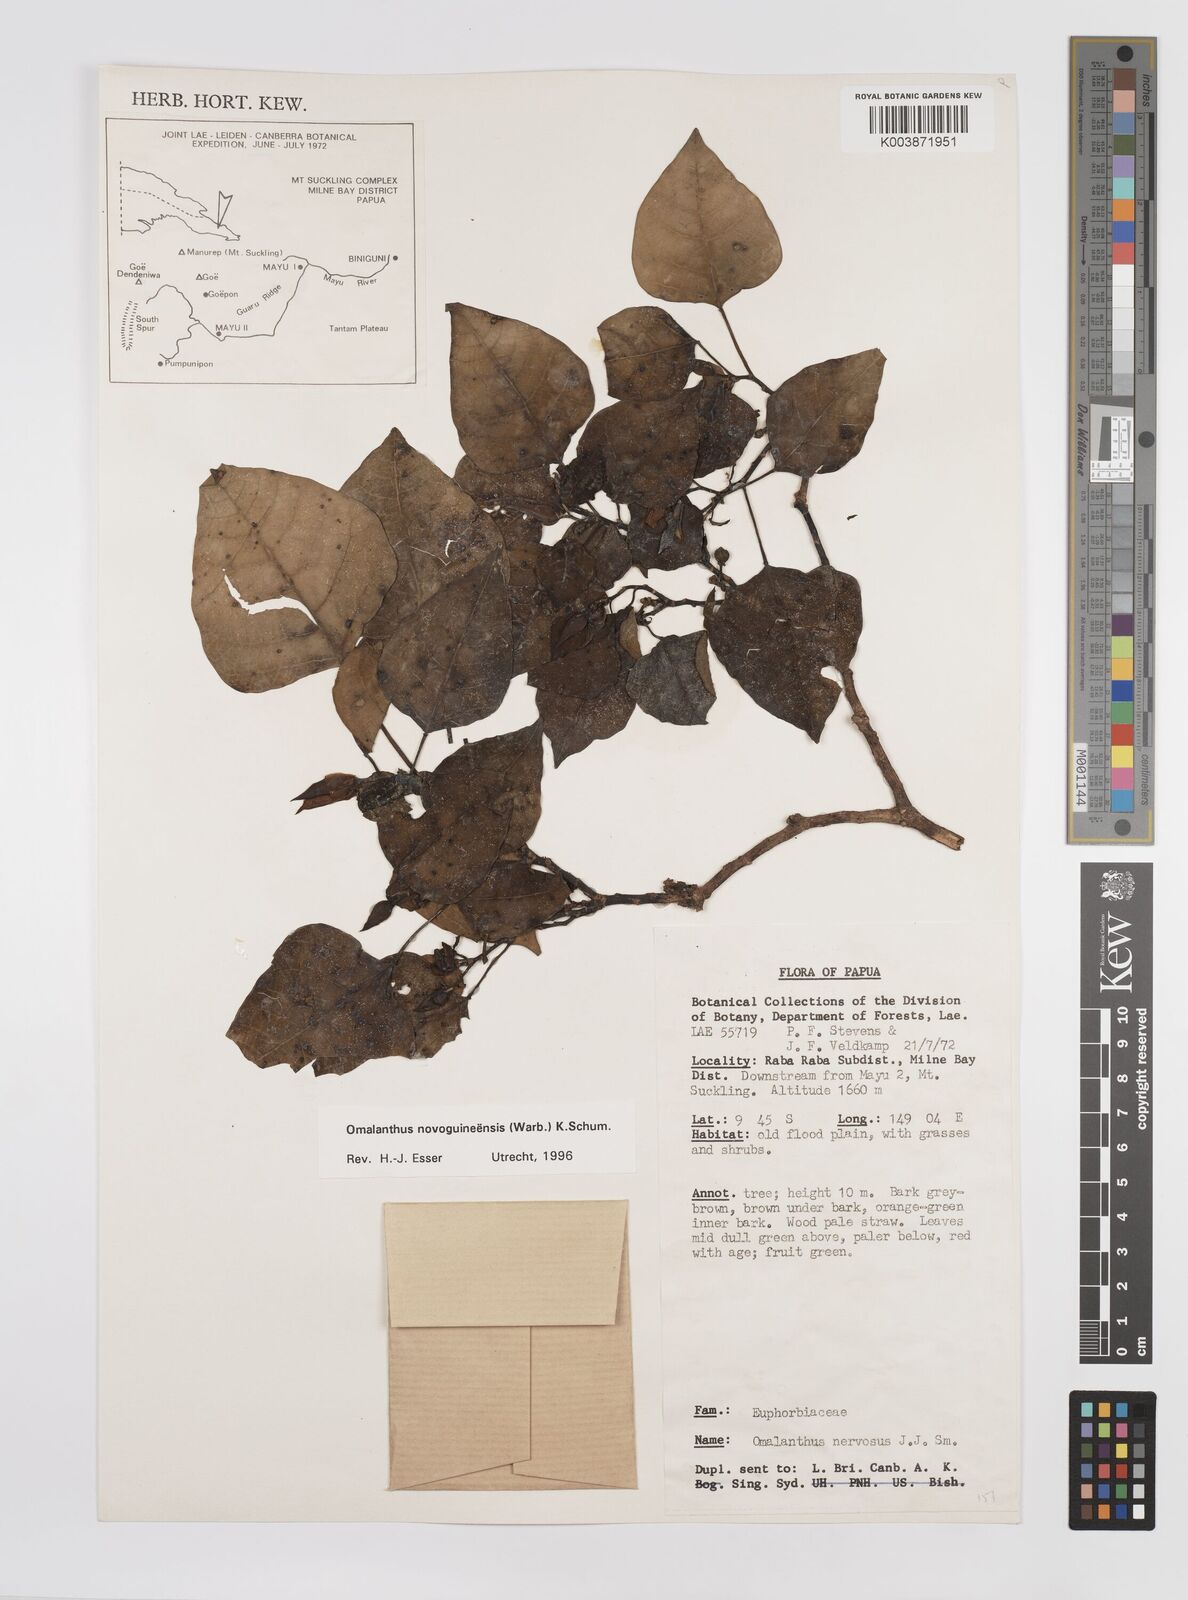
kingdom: Plantae
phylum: Tracheophyta
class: Magnoliopsida
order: Malpighiales
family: Euphorbiaceae
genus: Homalanthus
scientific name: Homalanthus novoguineensis
